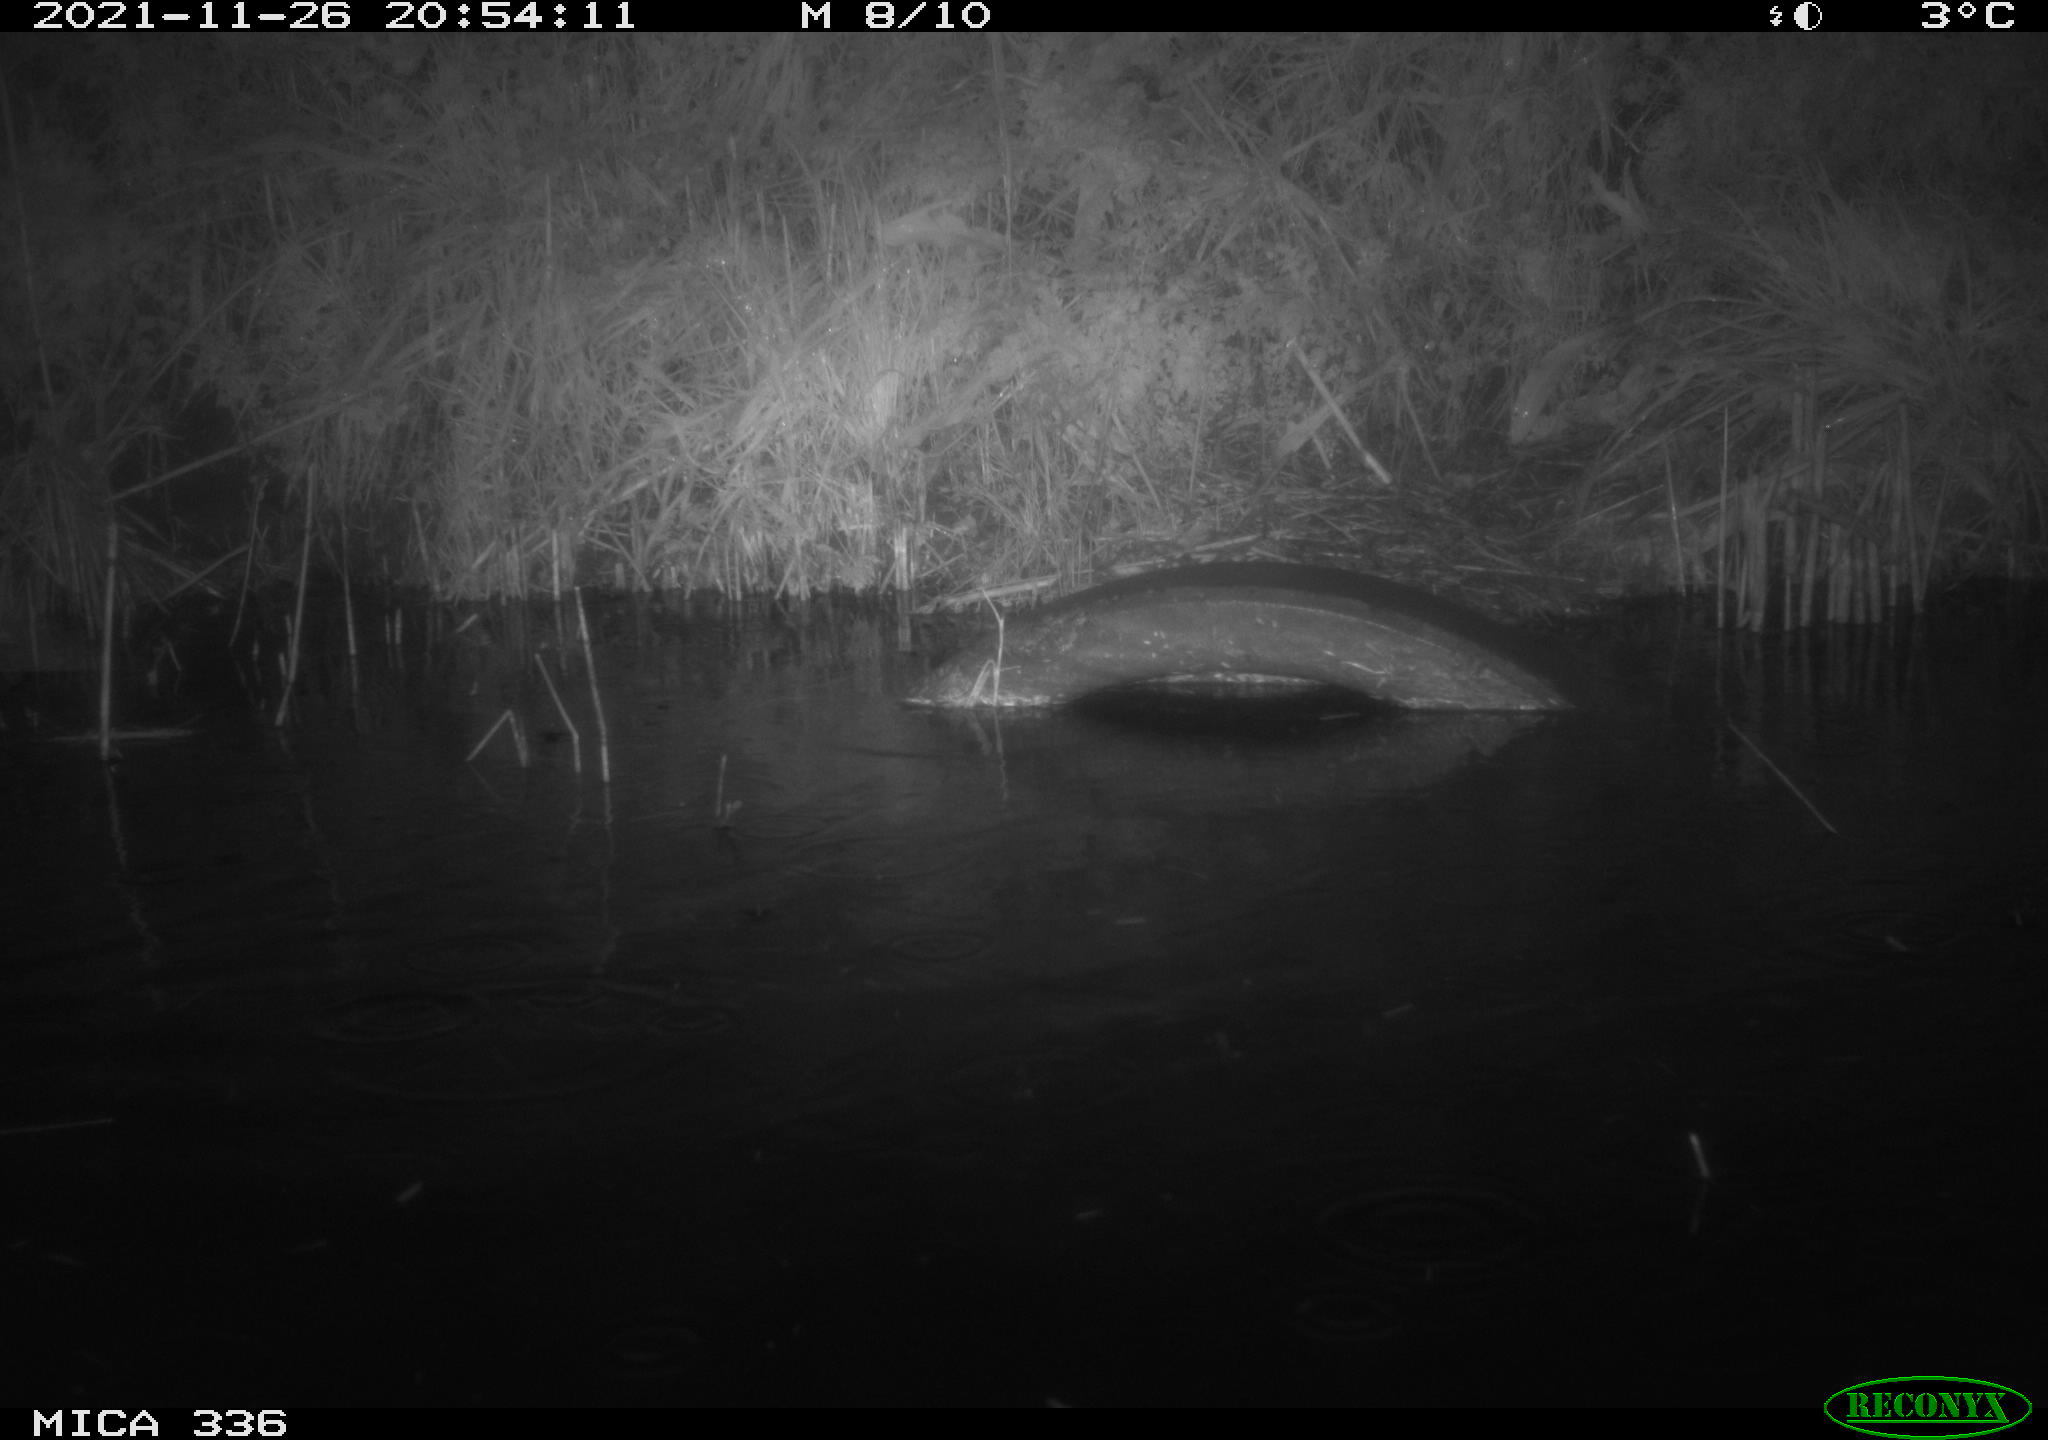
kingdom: Animalia
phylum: Chordata
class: Mammalia
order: Rodentia
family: Muridae
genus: Rattus
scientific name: Rattus norvegicus
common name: Brown rat
